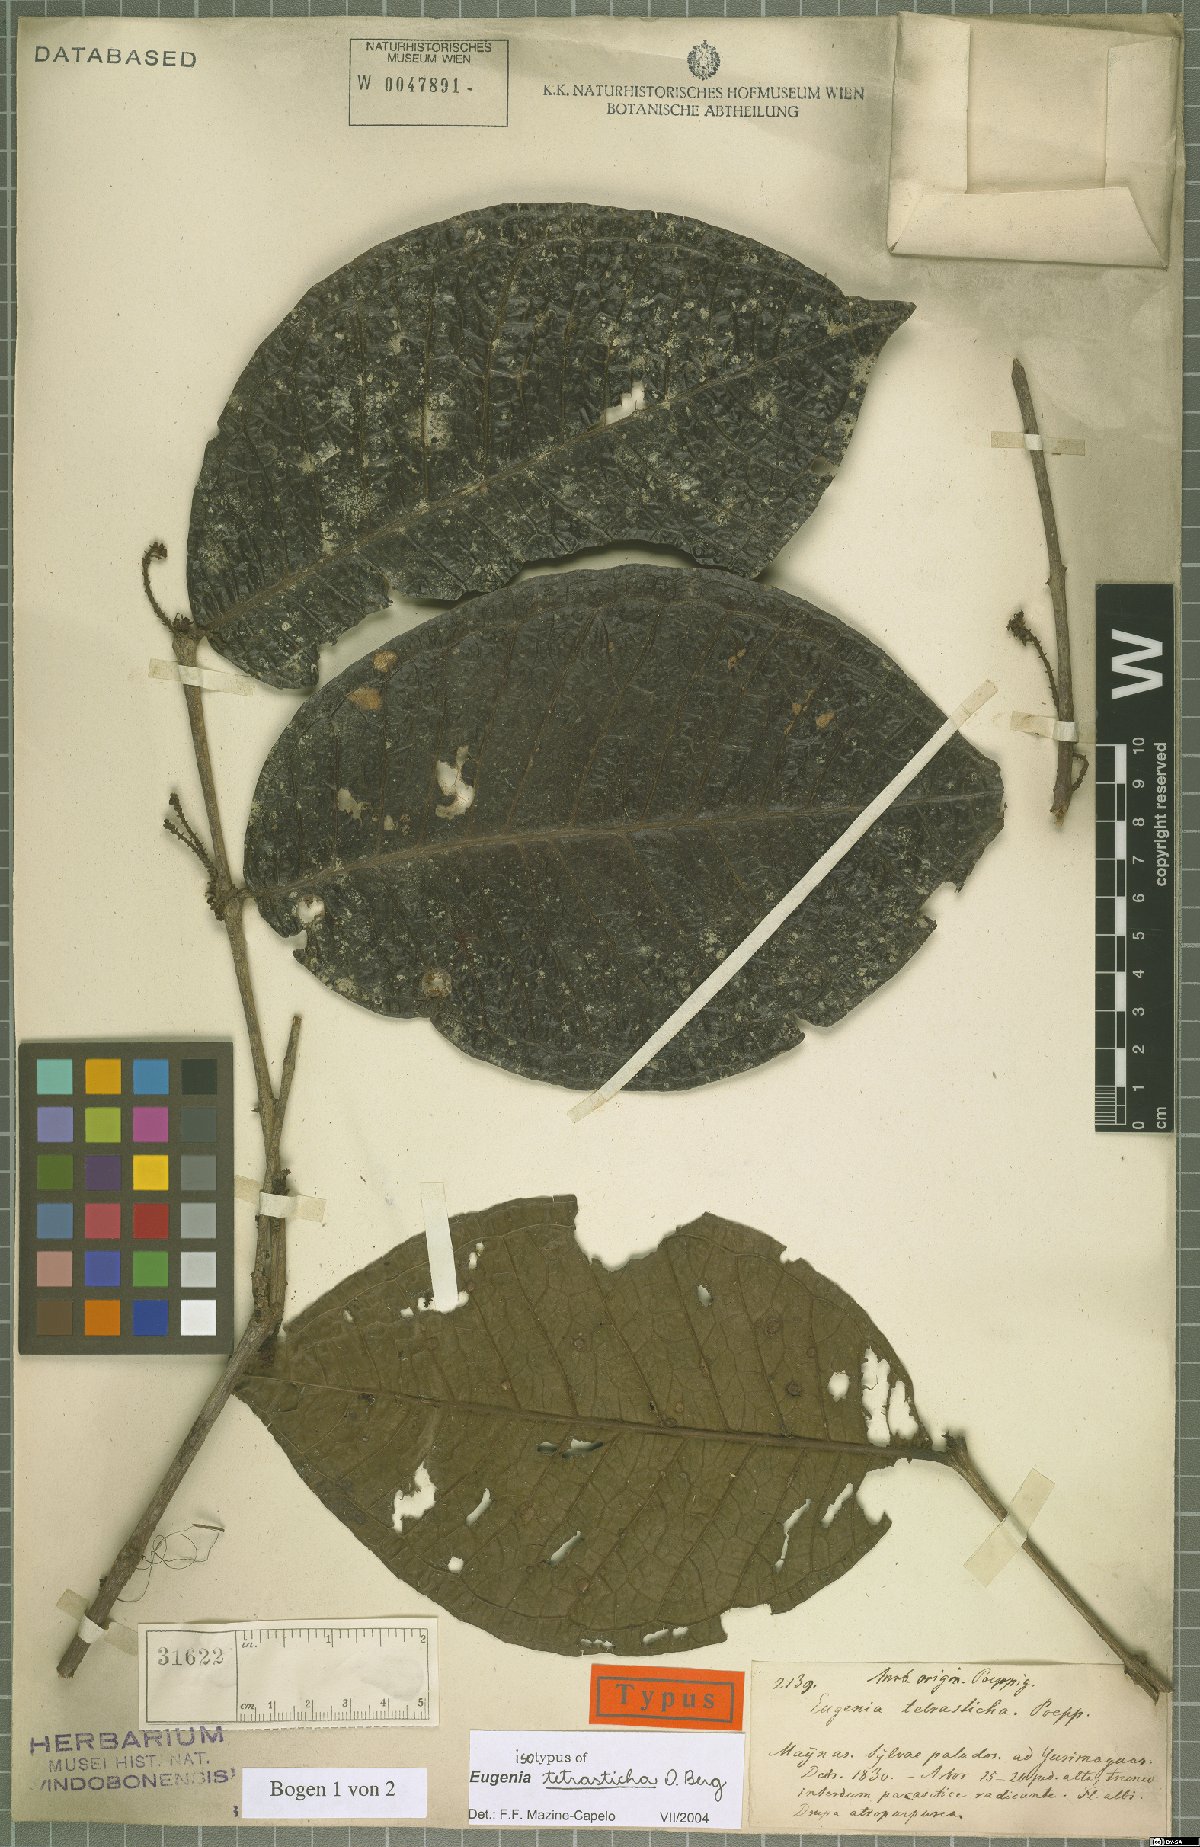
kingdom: Plantae
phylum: Tracheophyta
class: Magnoliopsida
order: Myrtales
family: Myrtaceae
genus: Eugenia
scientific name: Eugenia tetrasticha
